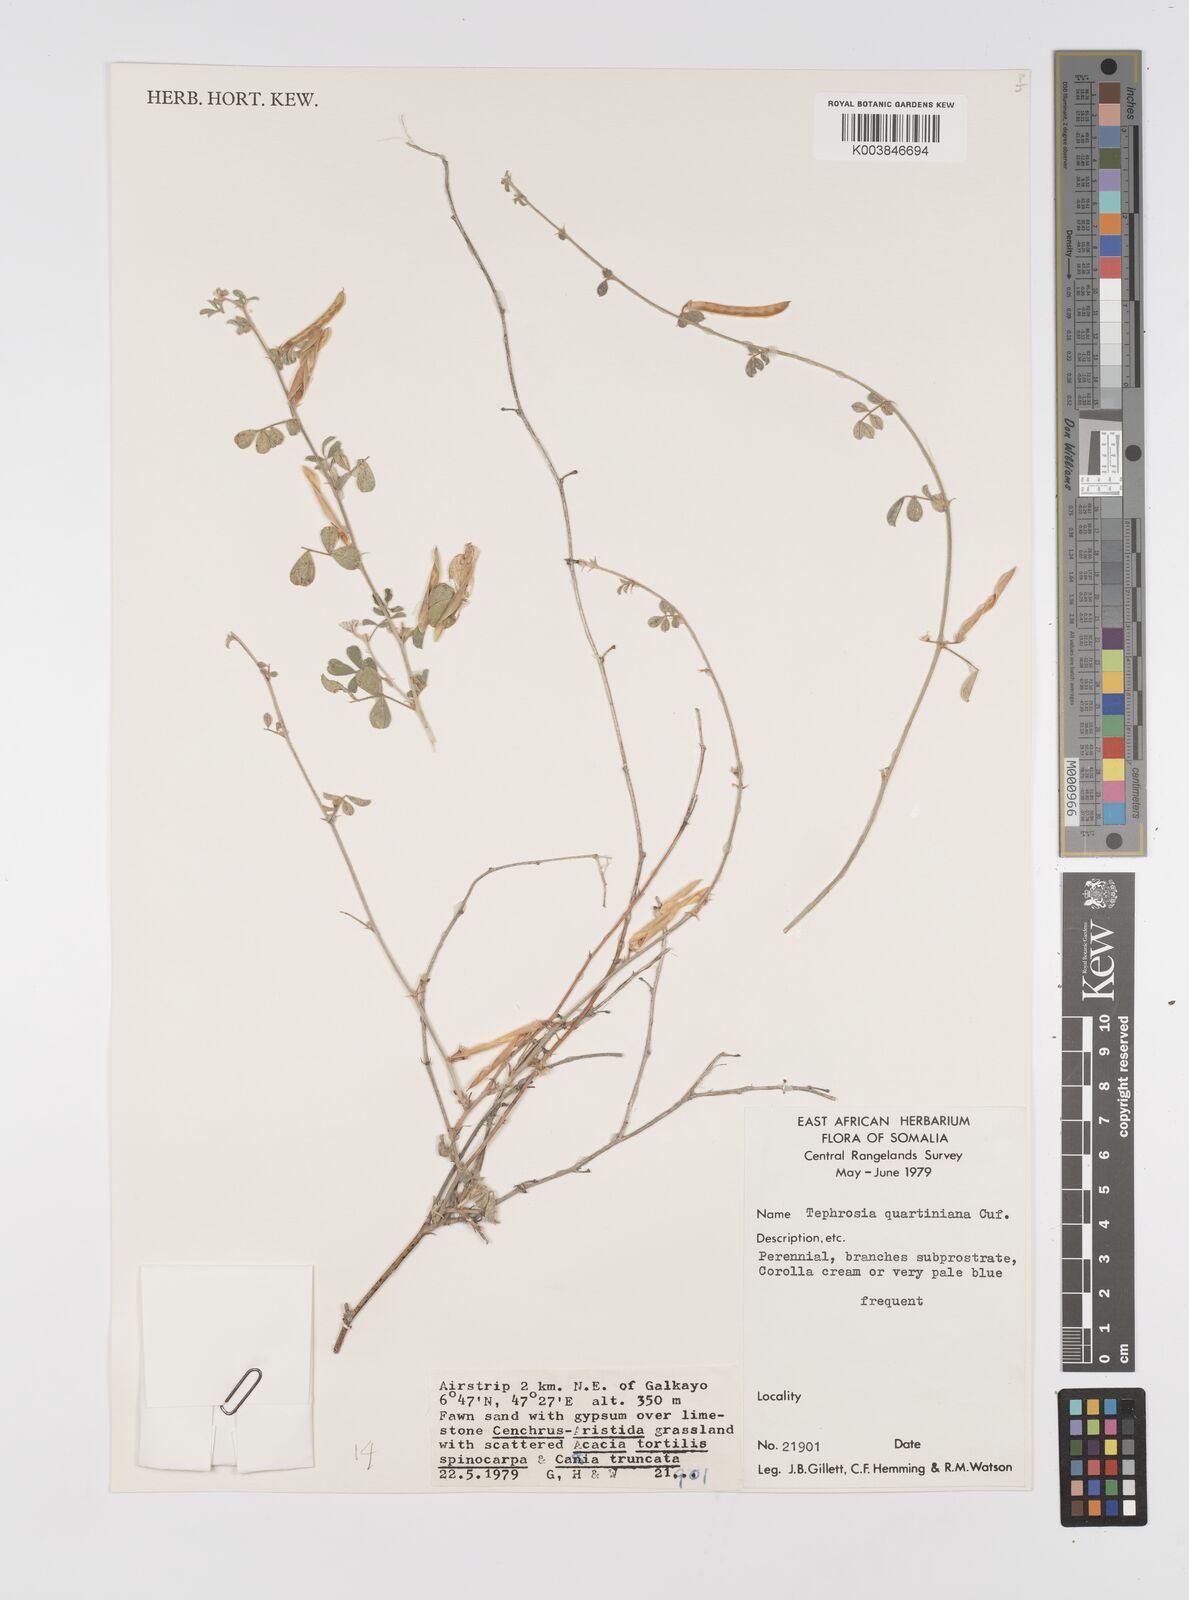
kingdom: Plantae
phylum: Tracheophyta
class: Magnoliopsida
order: Fabales
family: Fabaceae
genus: Tephrosia
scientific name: Tephrosia uniflora
